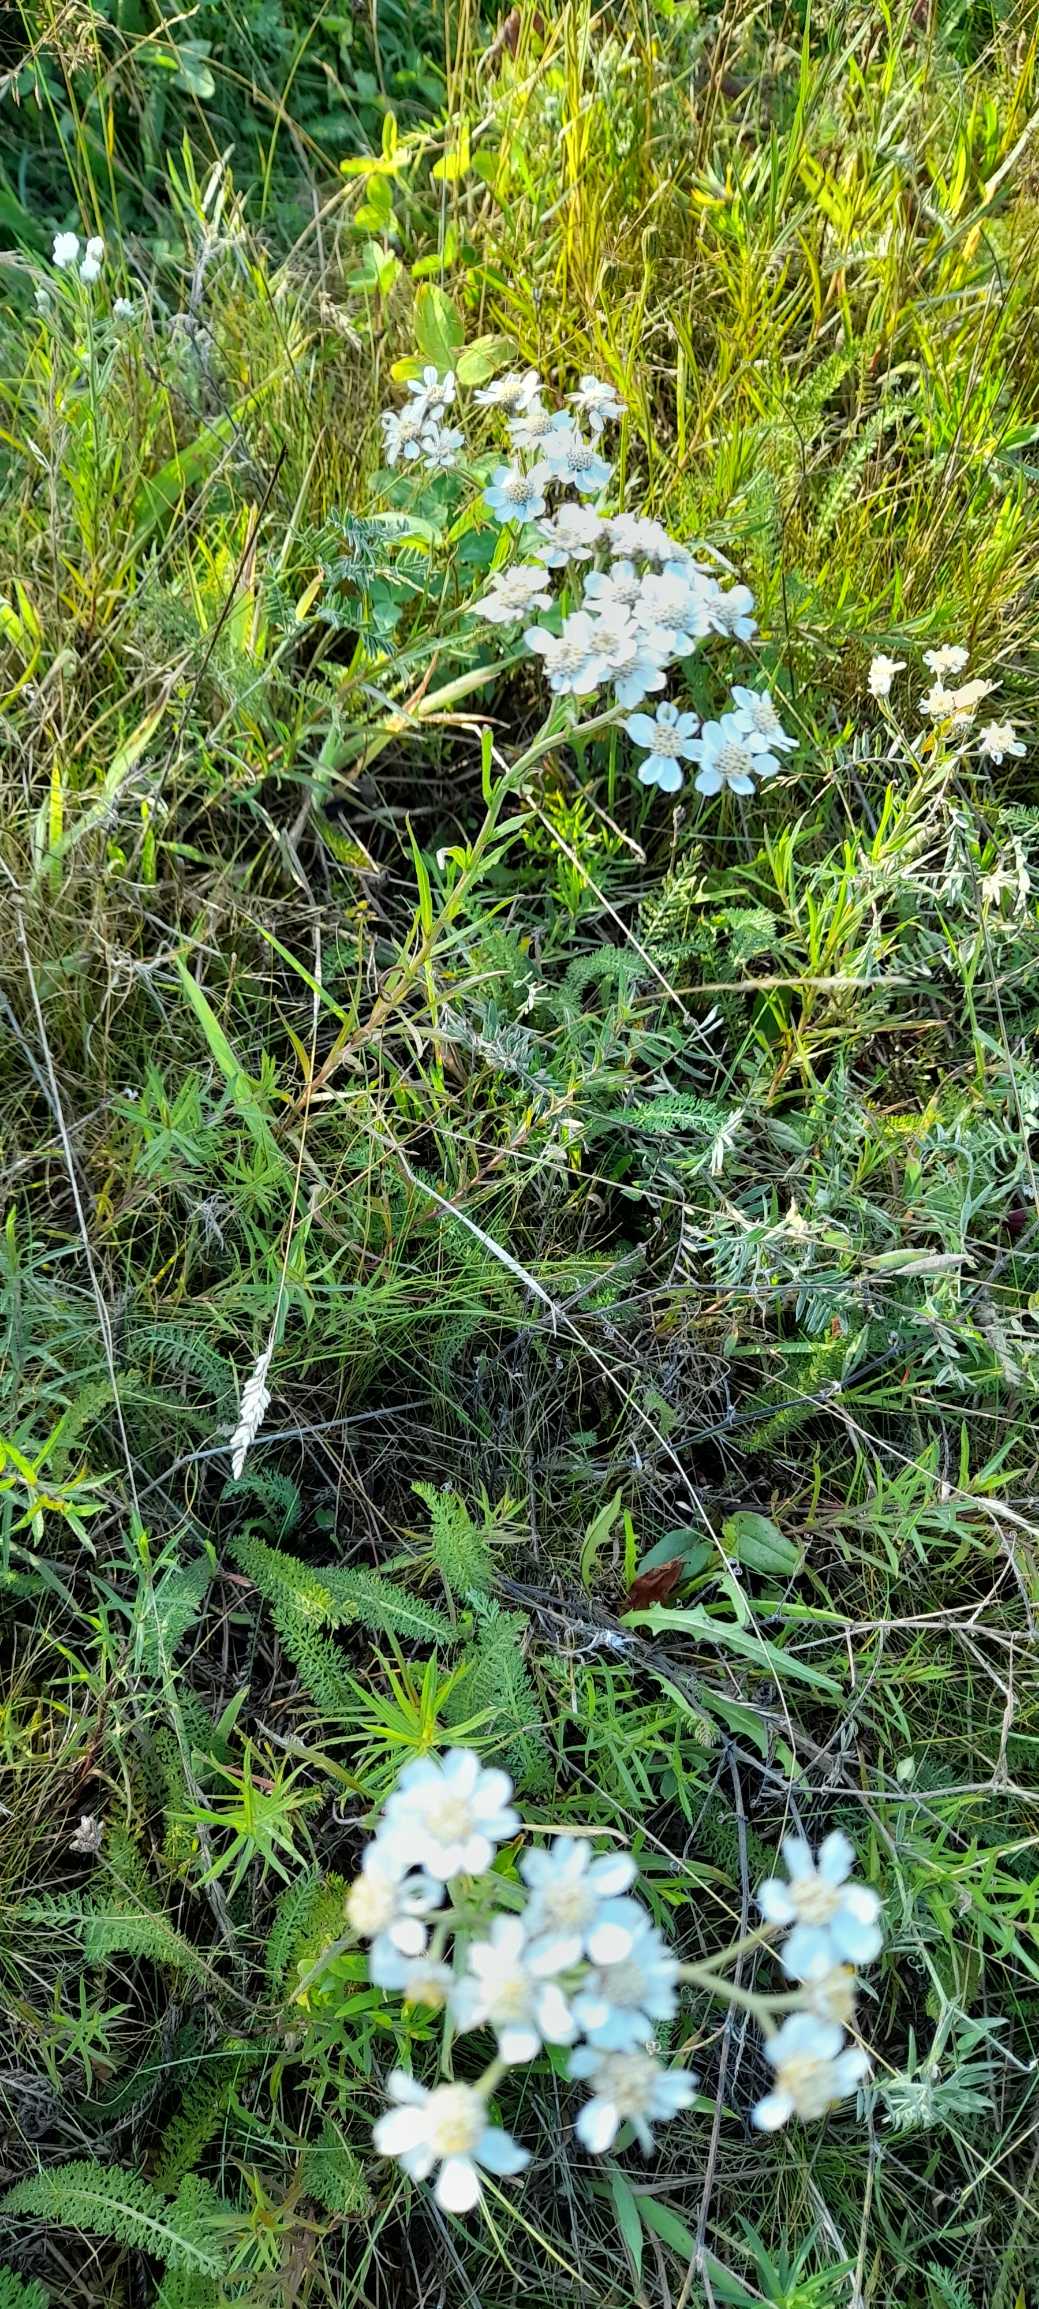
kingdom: Plantae
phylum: Tracheophyta
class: Magnoliopsida
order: Asterales
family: Asteraceae
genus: Achillea
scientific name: Achillea ptarmica
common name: Nyse-røllike
